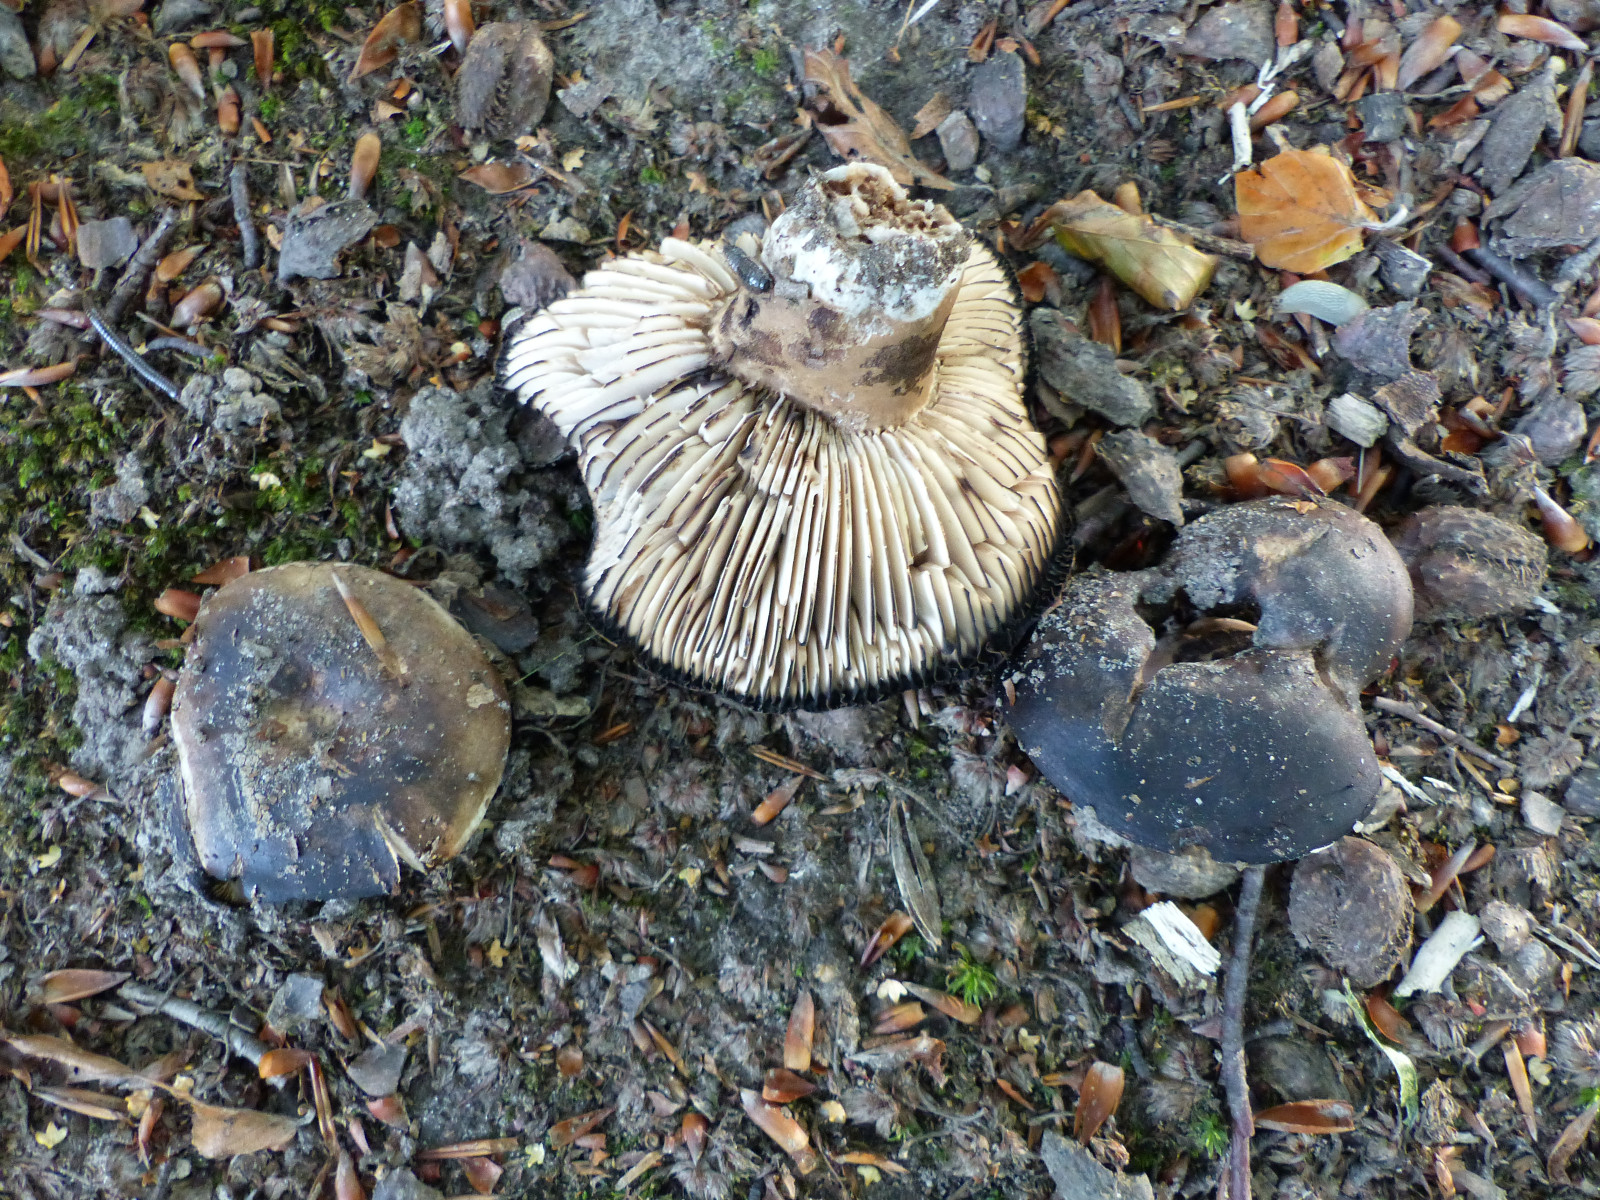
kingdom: Fungi
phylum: Basidiomycota
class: Agaricomycetes
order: Russulales
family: Russulaceae
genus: Russula
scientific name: Russula adusta
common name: sværtende skørhat
